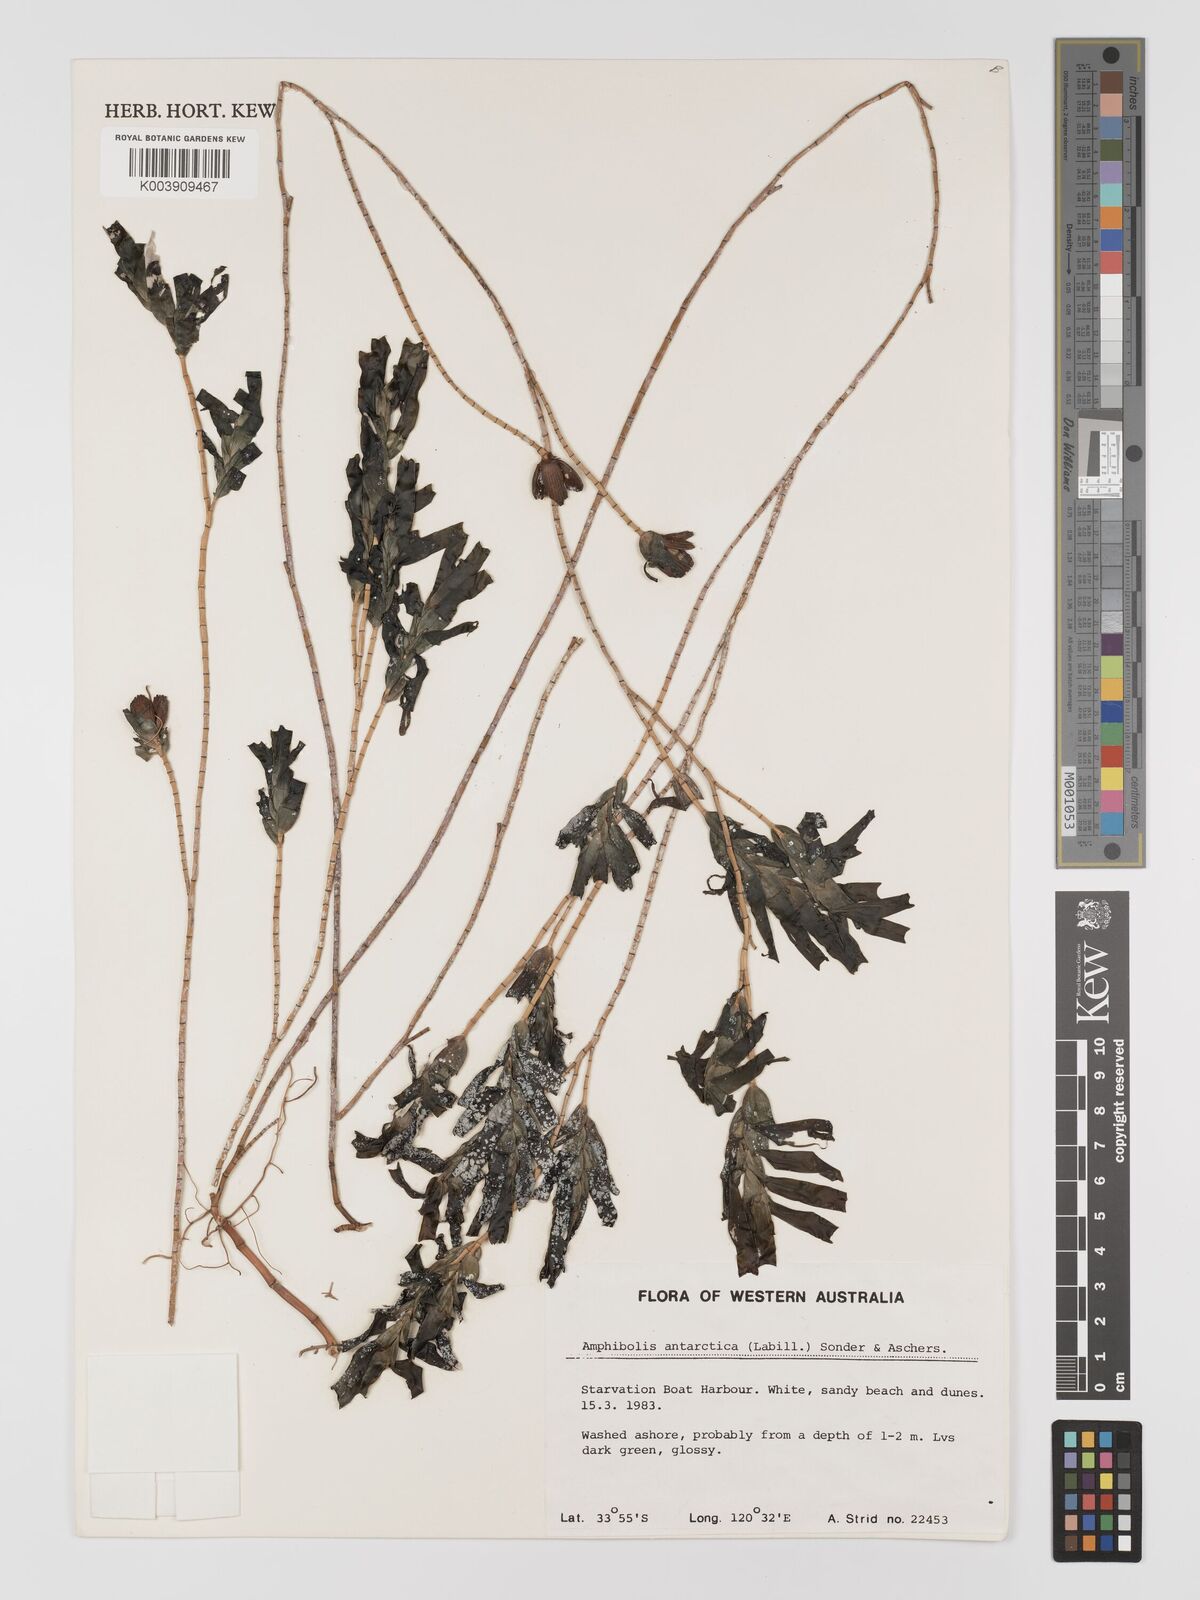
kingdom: Plantae
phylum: Tracheophyta
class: Liliopsida
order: Alismatales
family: Cymodoceaceae
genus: Amphibolis
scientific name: Amphibolis antarctica
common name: Species code: aa
